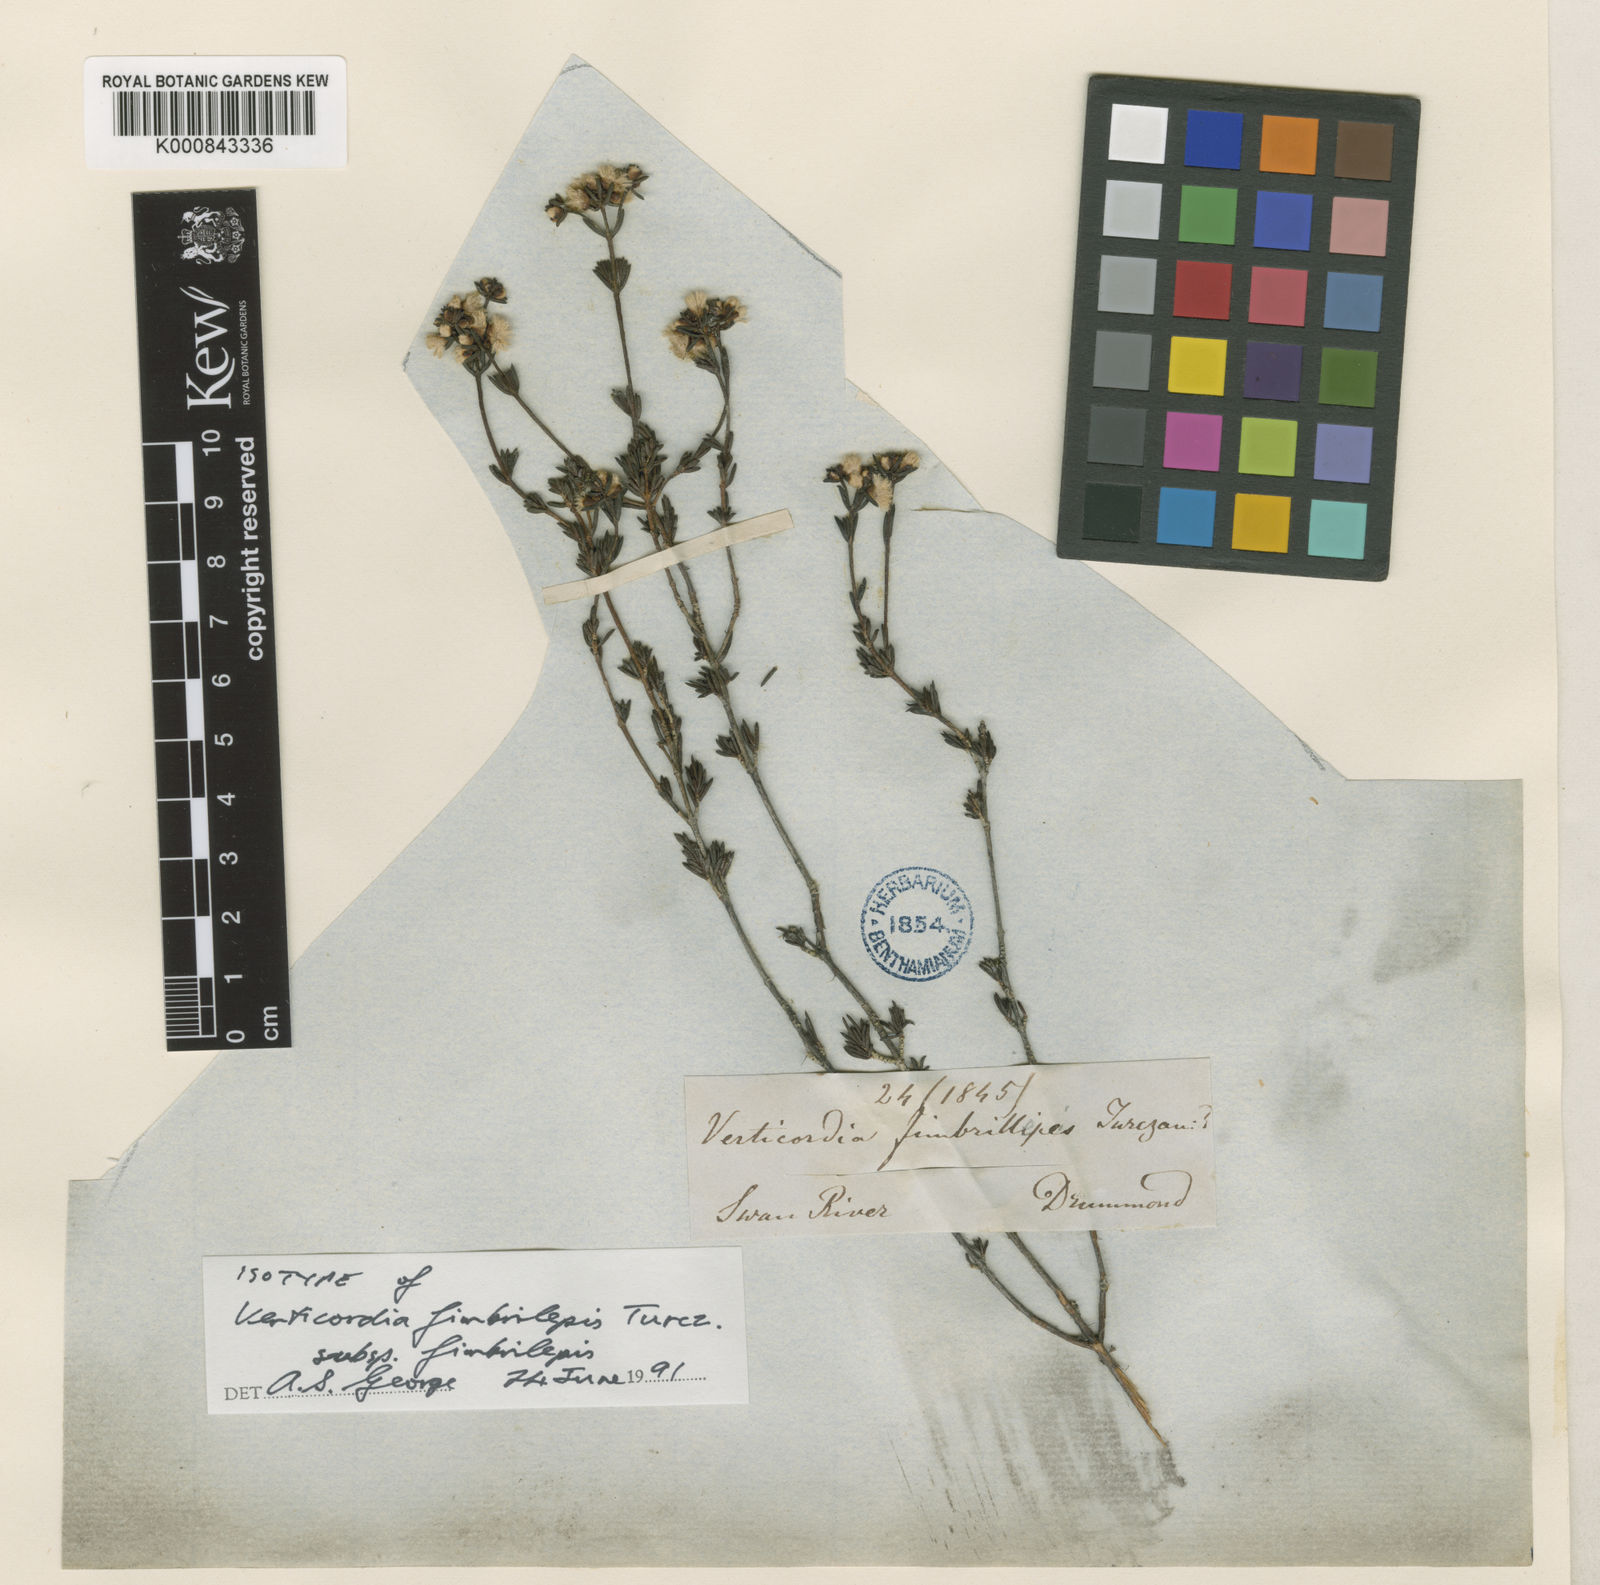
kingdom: Plantae
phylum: Tracheophyta
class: Magnoliopsida
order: Myrtales
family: Myrtaceae
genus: Verticordia
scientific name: Verticordia fimbrilepis
